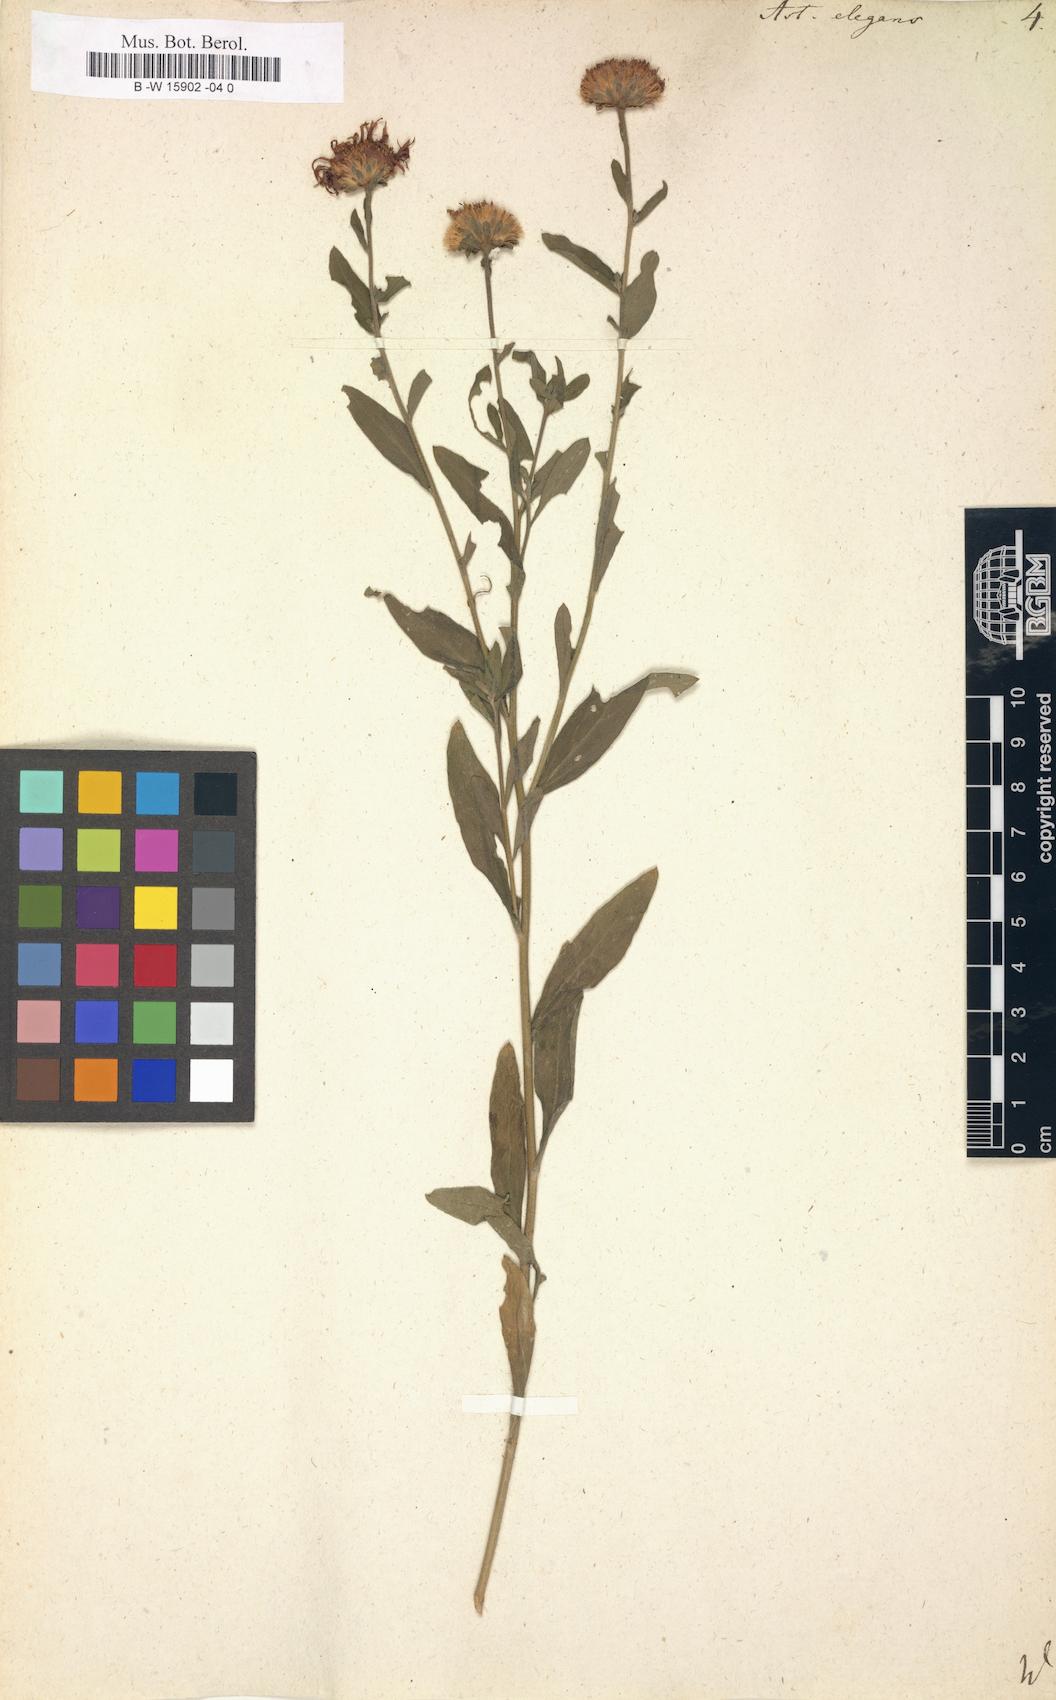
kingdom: Plantae
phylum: Tracheophyta
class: Magnoliopsida
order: Asterales
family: Asteraceae
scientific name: Asteraceae
